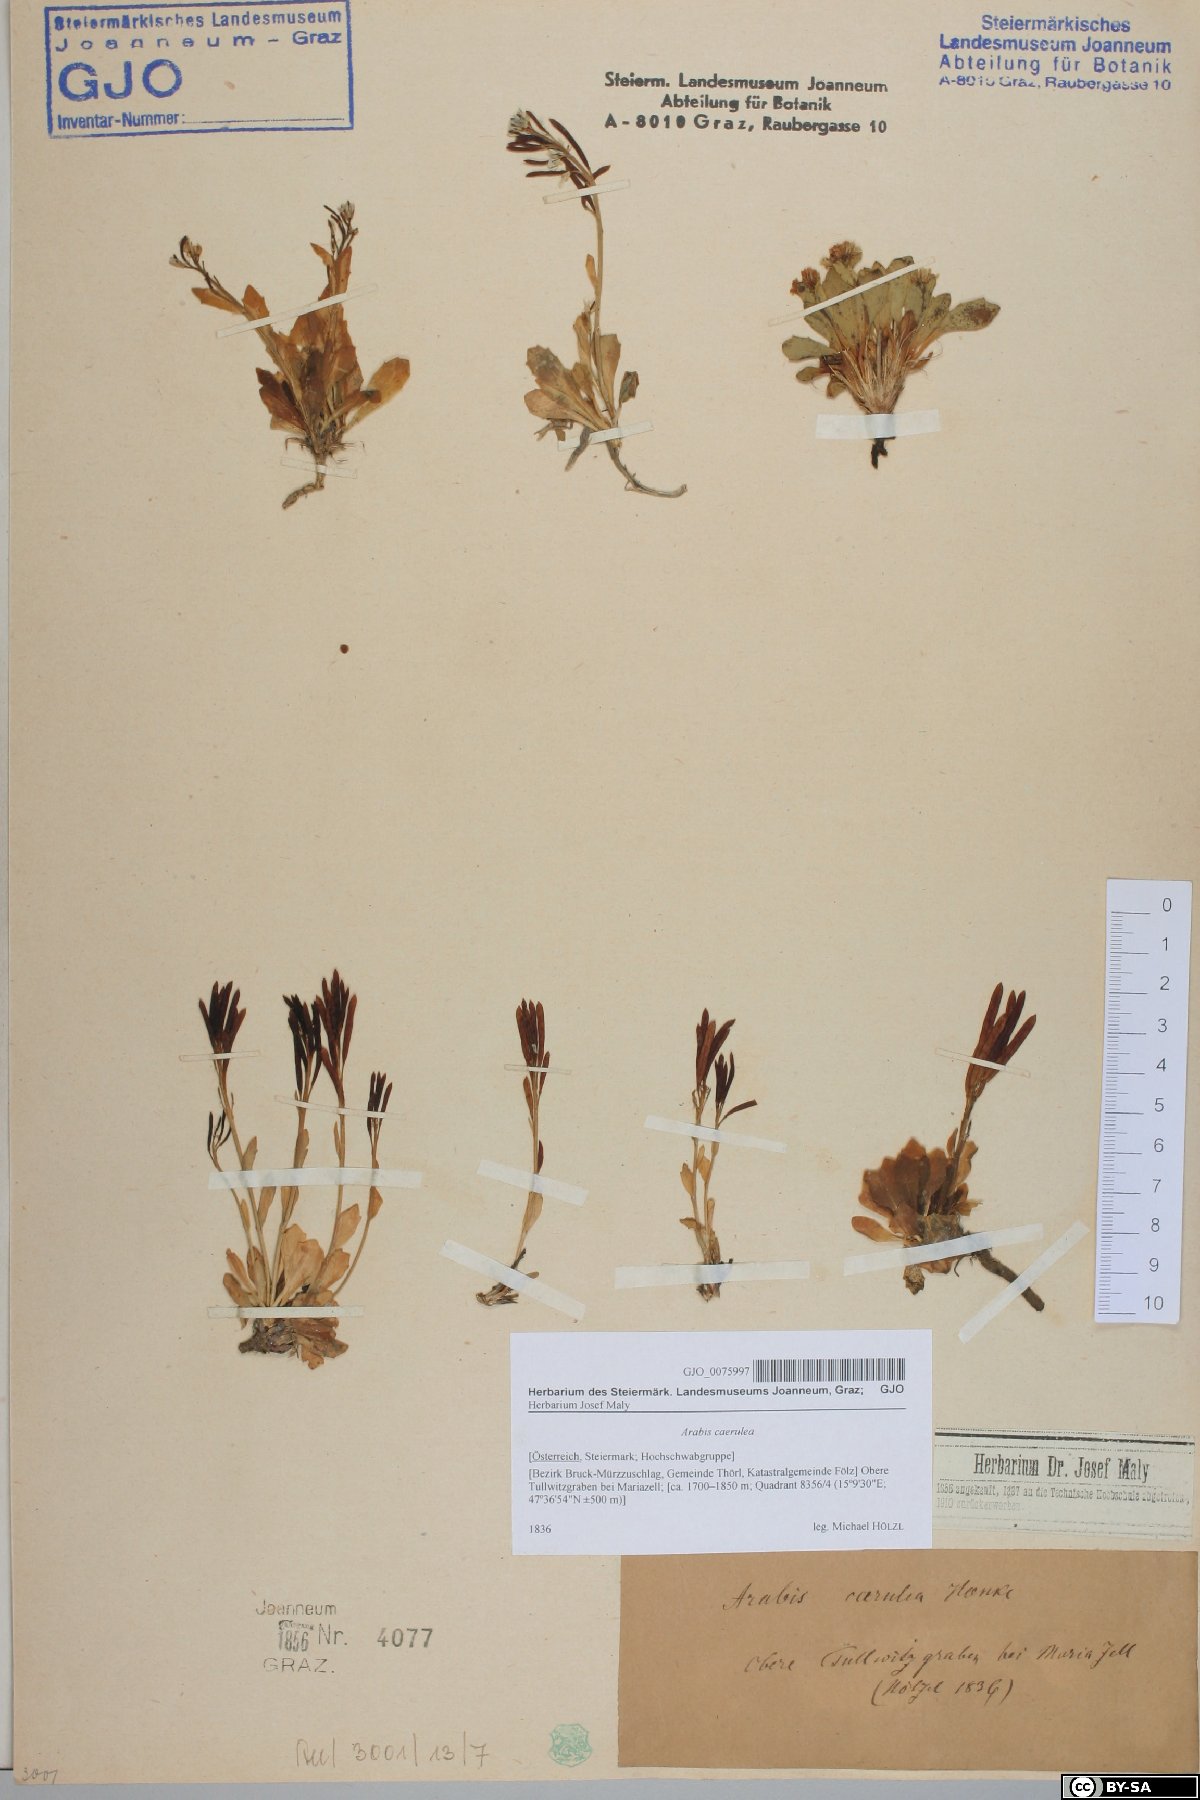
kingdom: Plantae
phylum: Tracheophyta
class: Magnoliopsida
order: Brassicales
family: Brassicaceae
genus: Arabis
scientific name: Arabis caerulea
